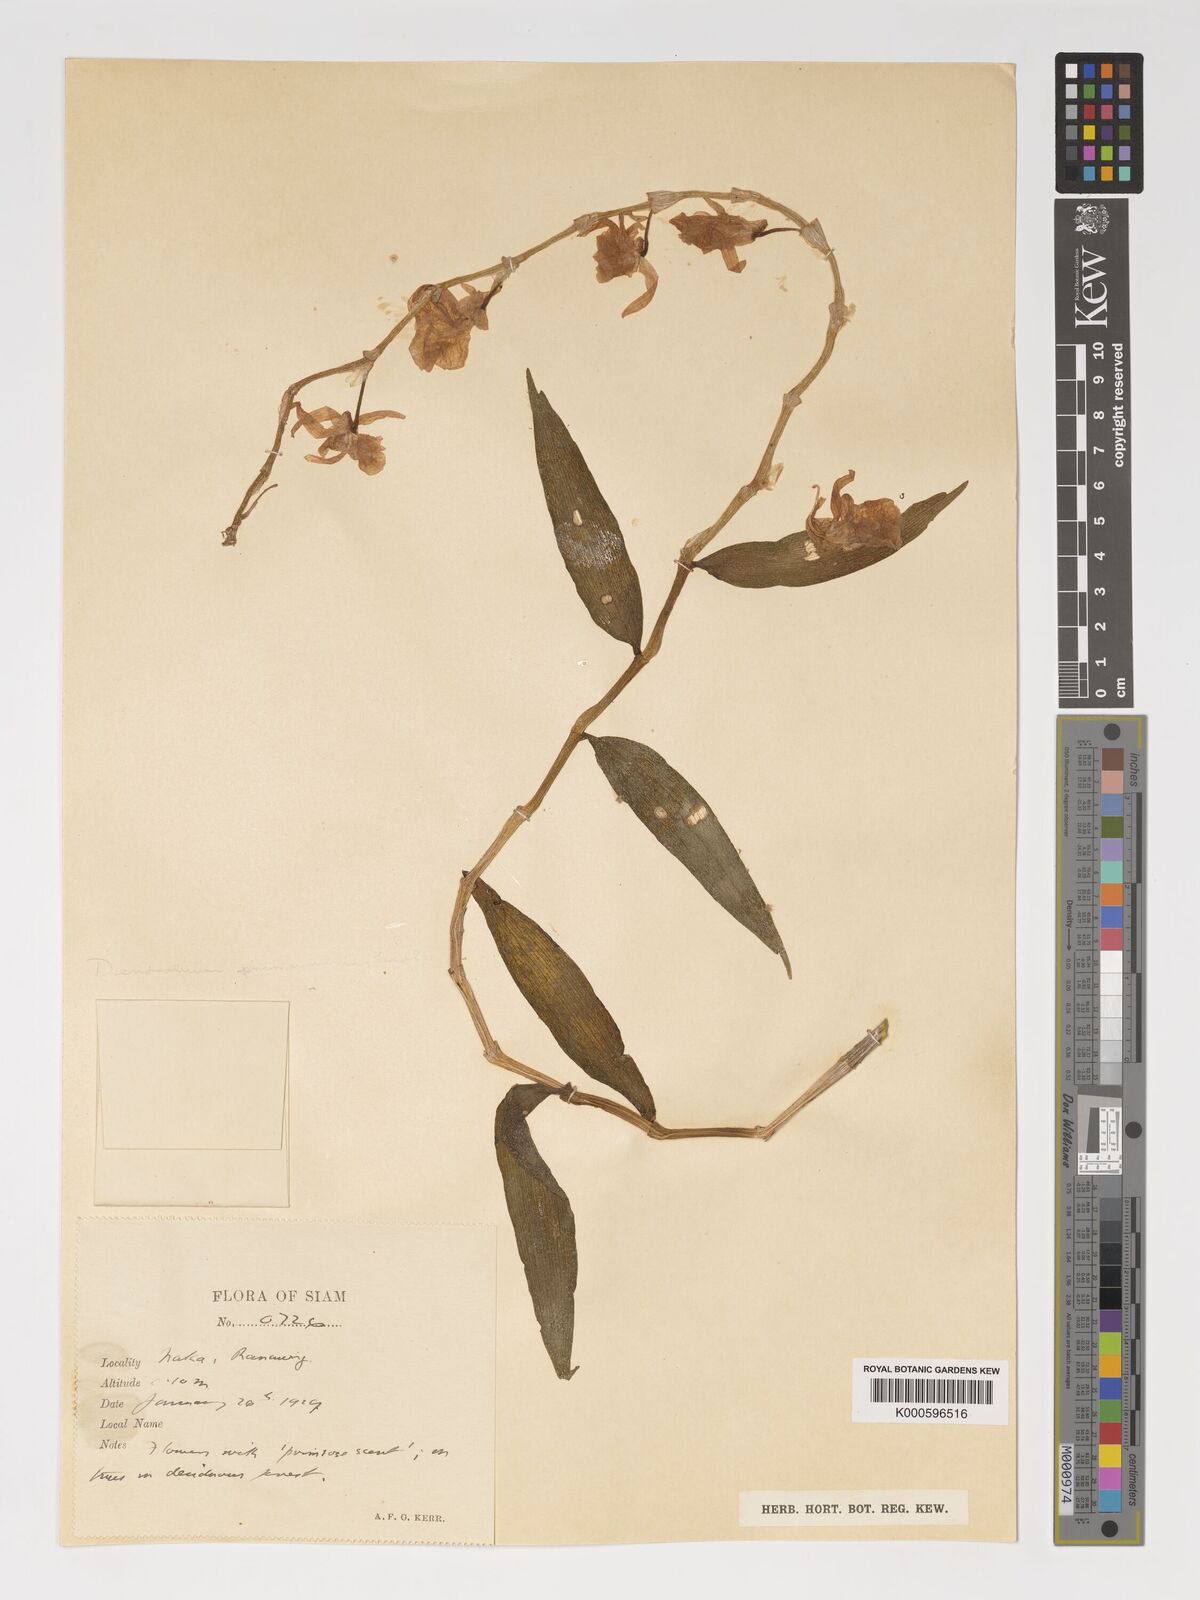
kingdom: Plantae
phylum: Tracheophyta
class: Liliopsida
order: Asparagales
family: Orchidaceae
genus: Dendrobium
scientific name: Dendrobium polyanthum
